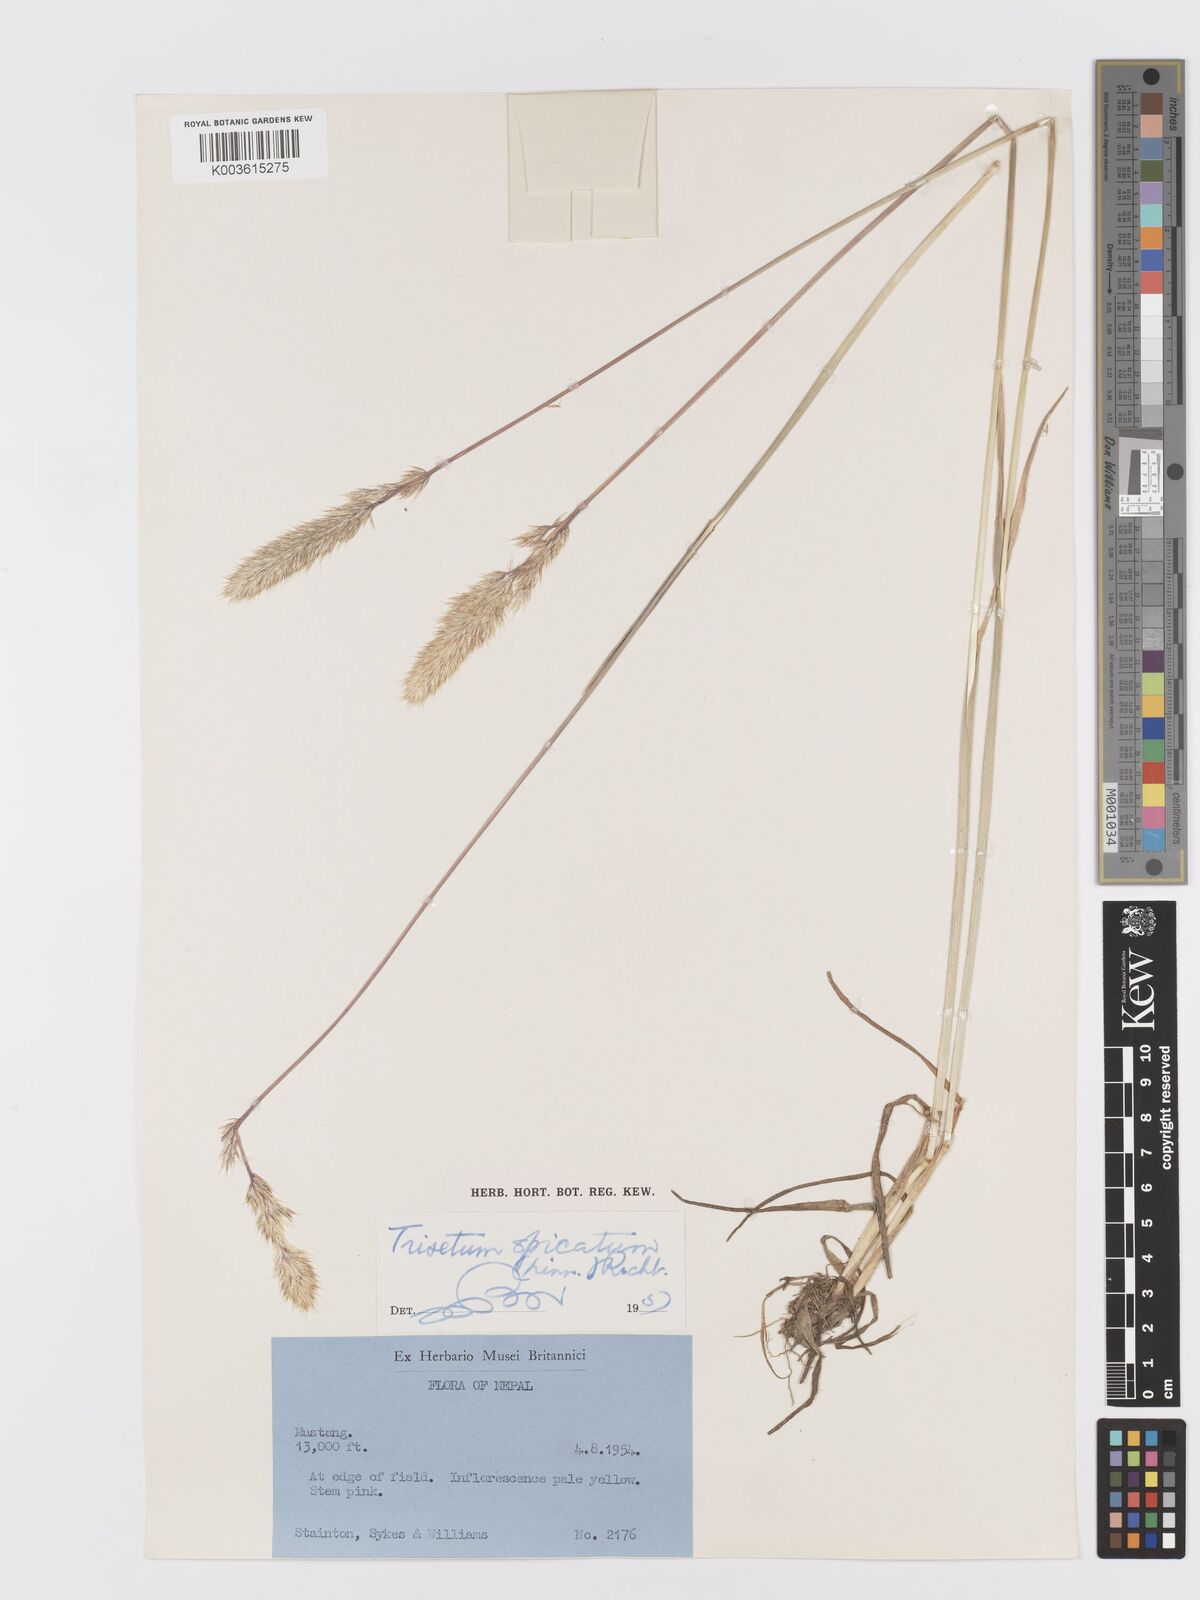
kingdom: Plantae
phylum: Tracheophyta
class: Liliopsida
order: Poales
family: Poaceae
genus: Koeleria
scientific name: Koeleria spicata
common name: Mountain trisetum
